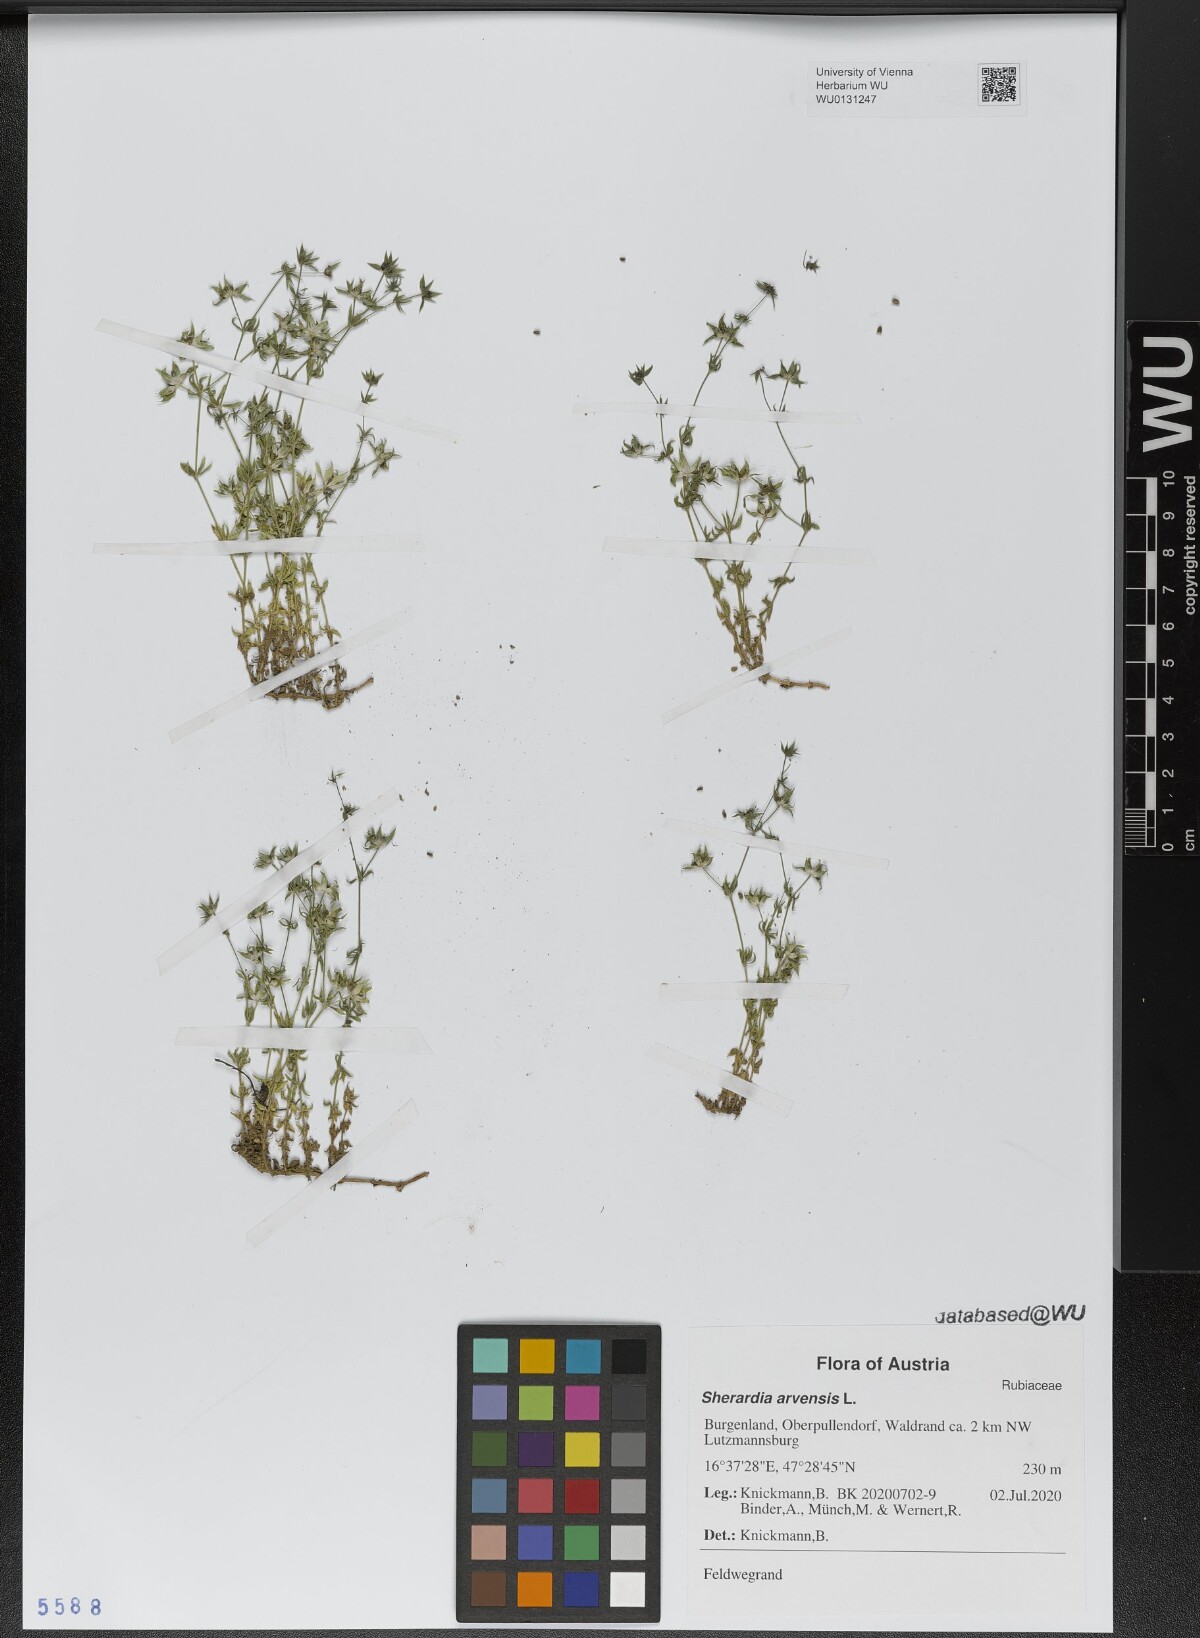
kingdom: Plantae
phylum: Tracheophyta
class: Magnoliopsida
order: Gentianales
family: Rubiaceae
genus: Sherardia
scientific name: Sherardia arvensis
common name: Field madder
